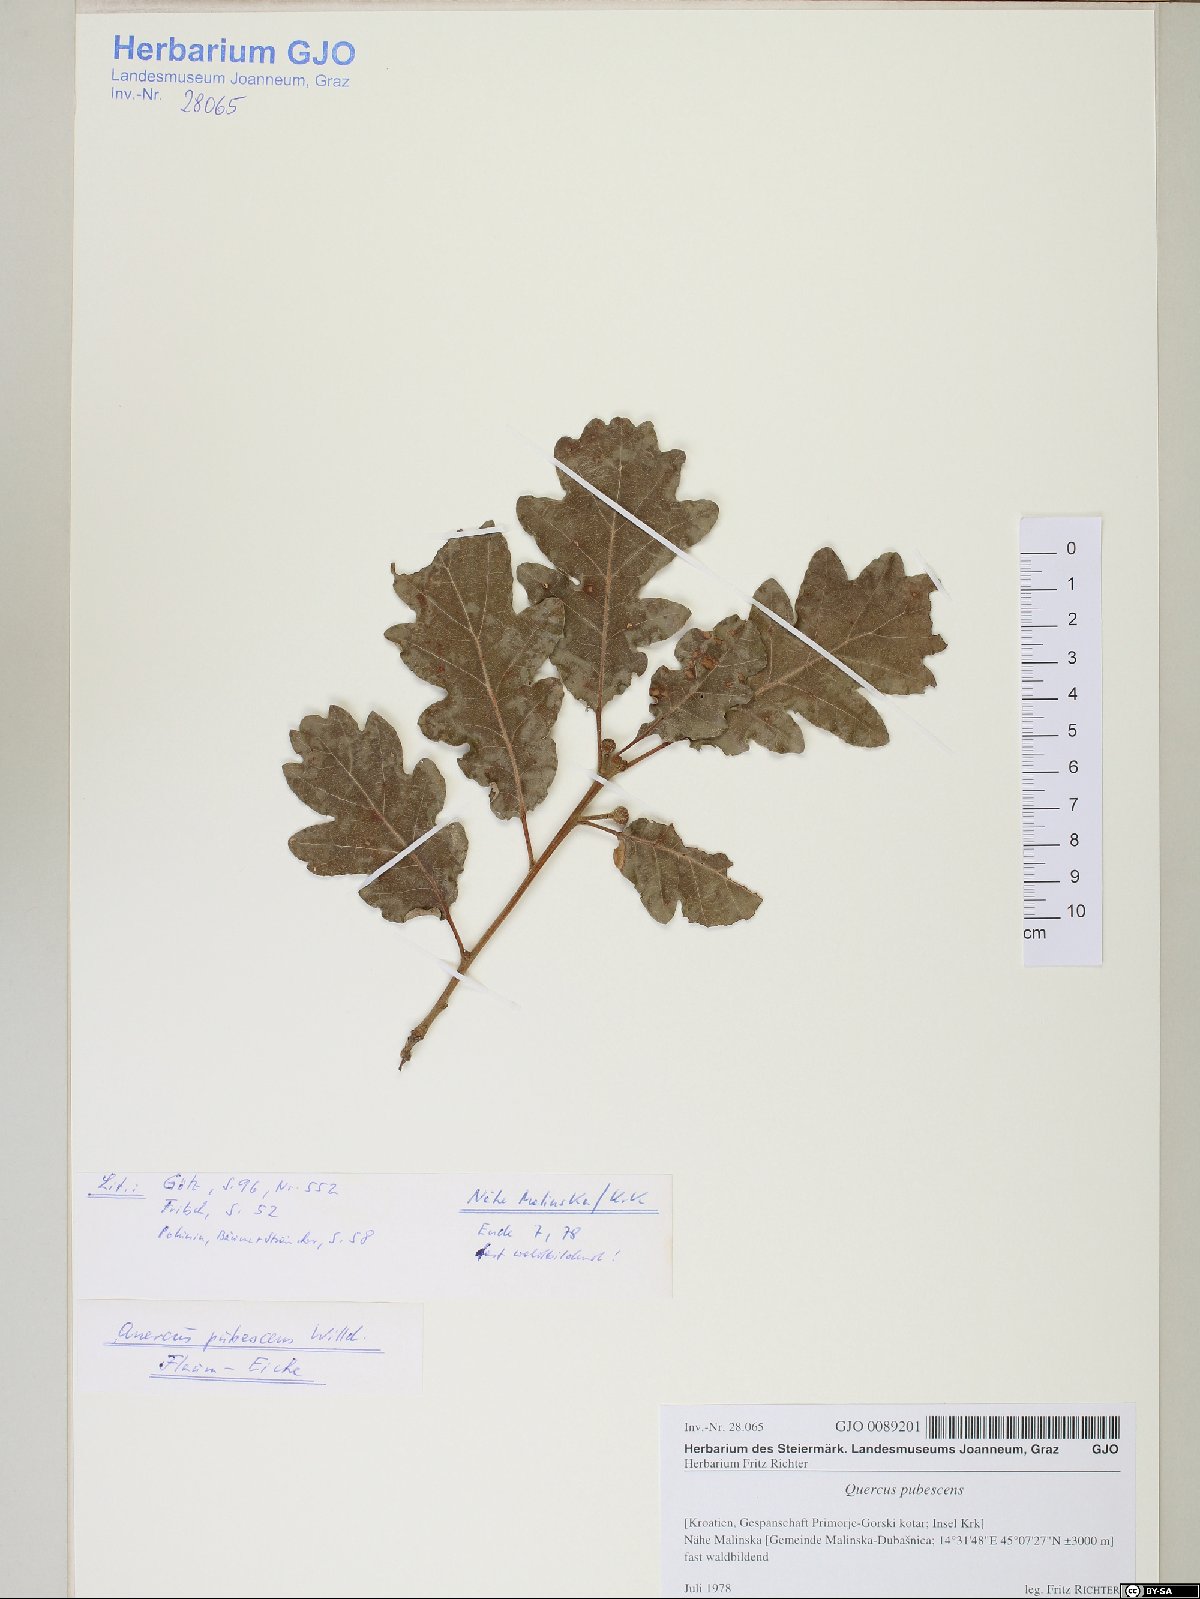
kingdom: Plantae
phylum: Tracheophyta
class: Magnoliopsida
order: Fagales
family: Fagaceae
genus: Quercus
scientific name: Quercus pubescens
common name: Downy oak
